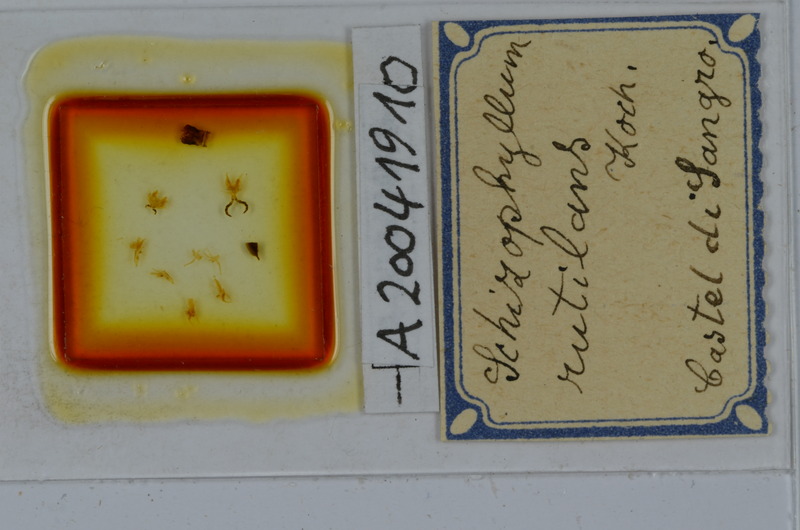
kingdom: Animalia
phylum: Arthropoda
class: Diplopoda
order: Julida
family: Julidae
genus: Ommatoiulus
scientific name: Ommatoiulus rutilans
